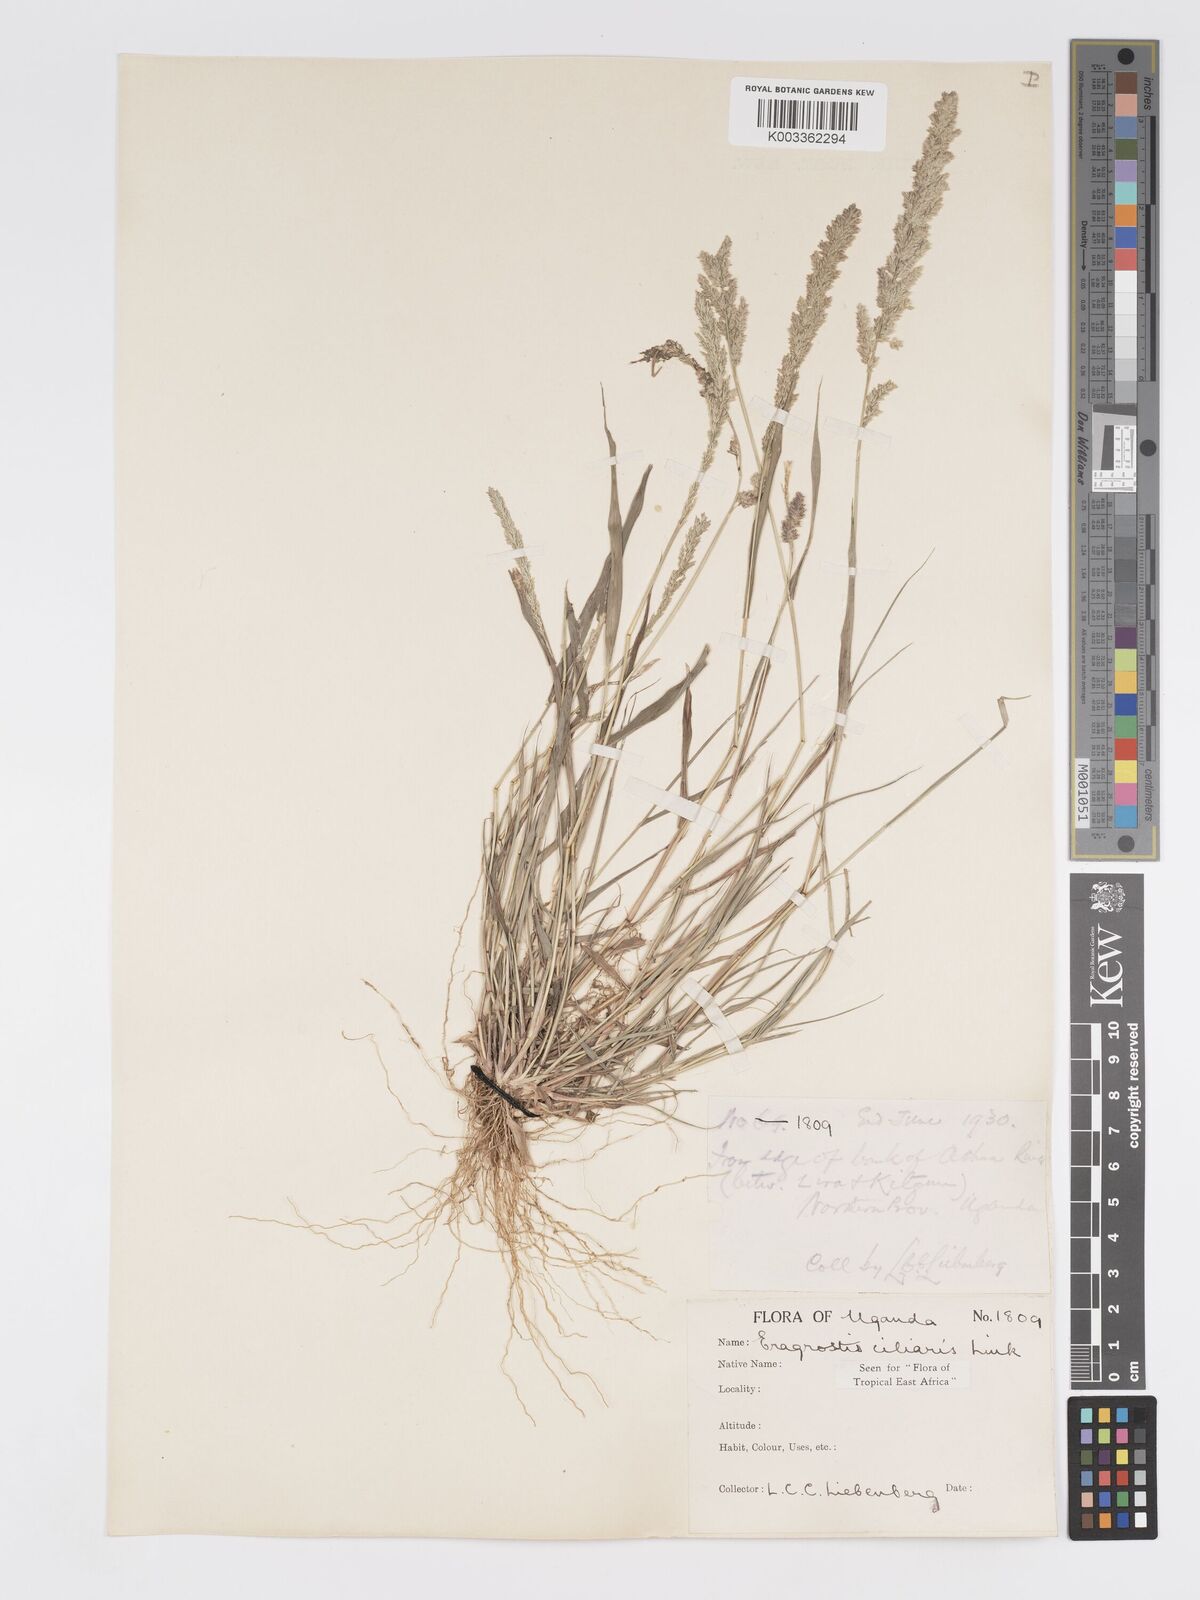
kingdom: Plantae
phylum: Tracheophyta
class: Liliopsida
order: Poales
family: Poaceae
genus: Eragrostis
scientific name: Eragrostis ciliaris
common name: Gophertail lovegrass
